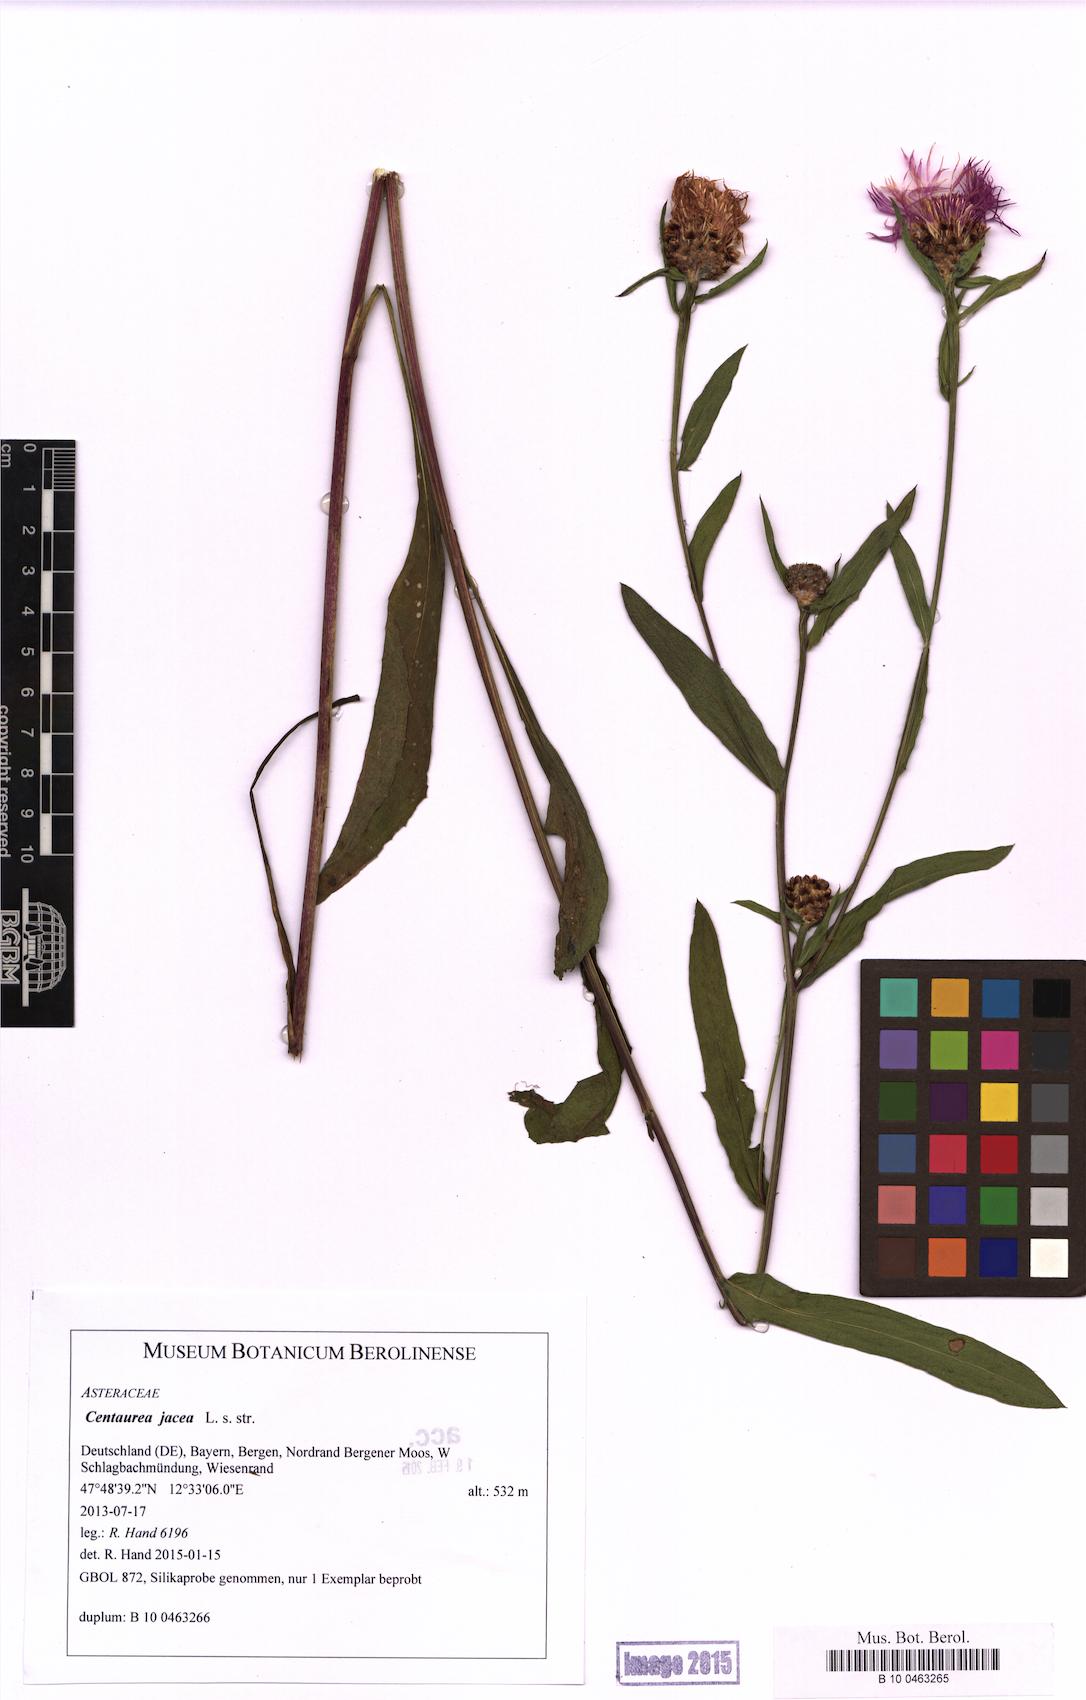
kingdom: Plantae
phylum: Tracheophyta
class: Magnoliopsida
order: Asterales
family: Asteraceae
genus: Centaurea
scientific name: Centaurea jacea
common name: Brown knapweed
